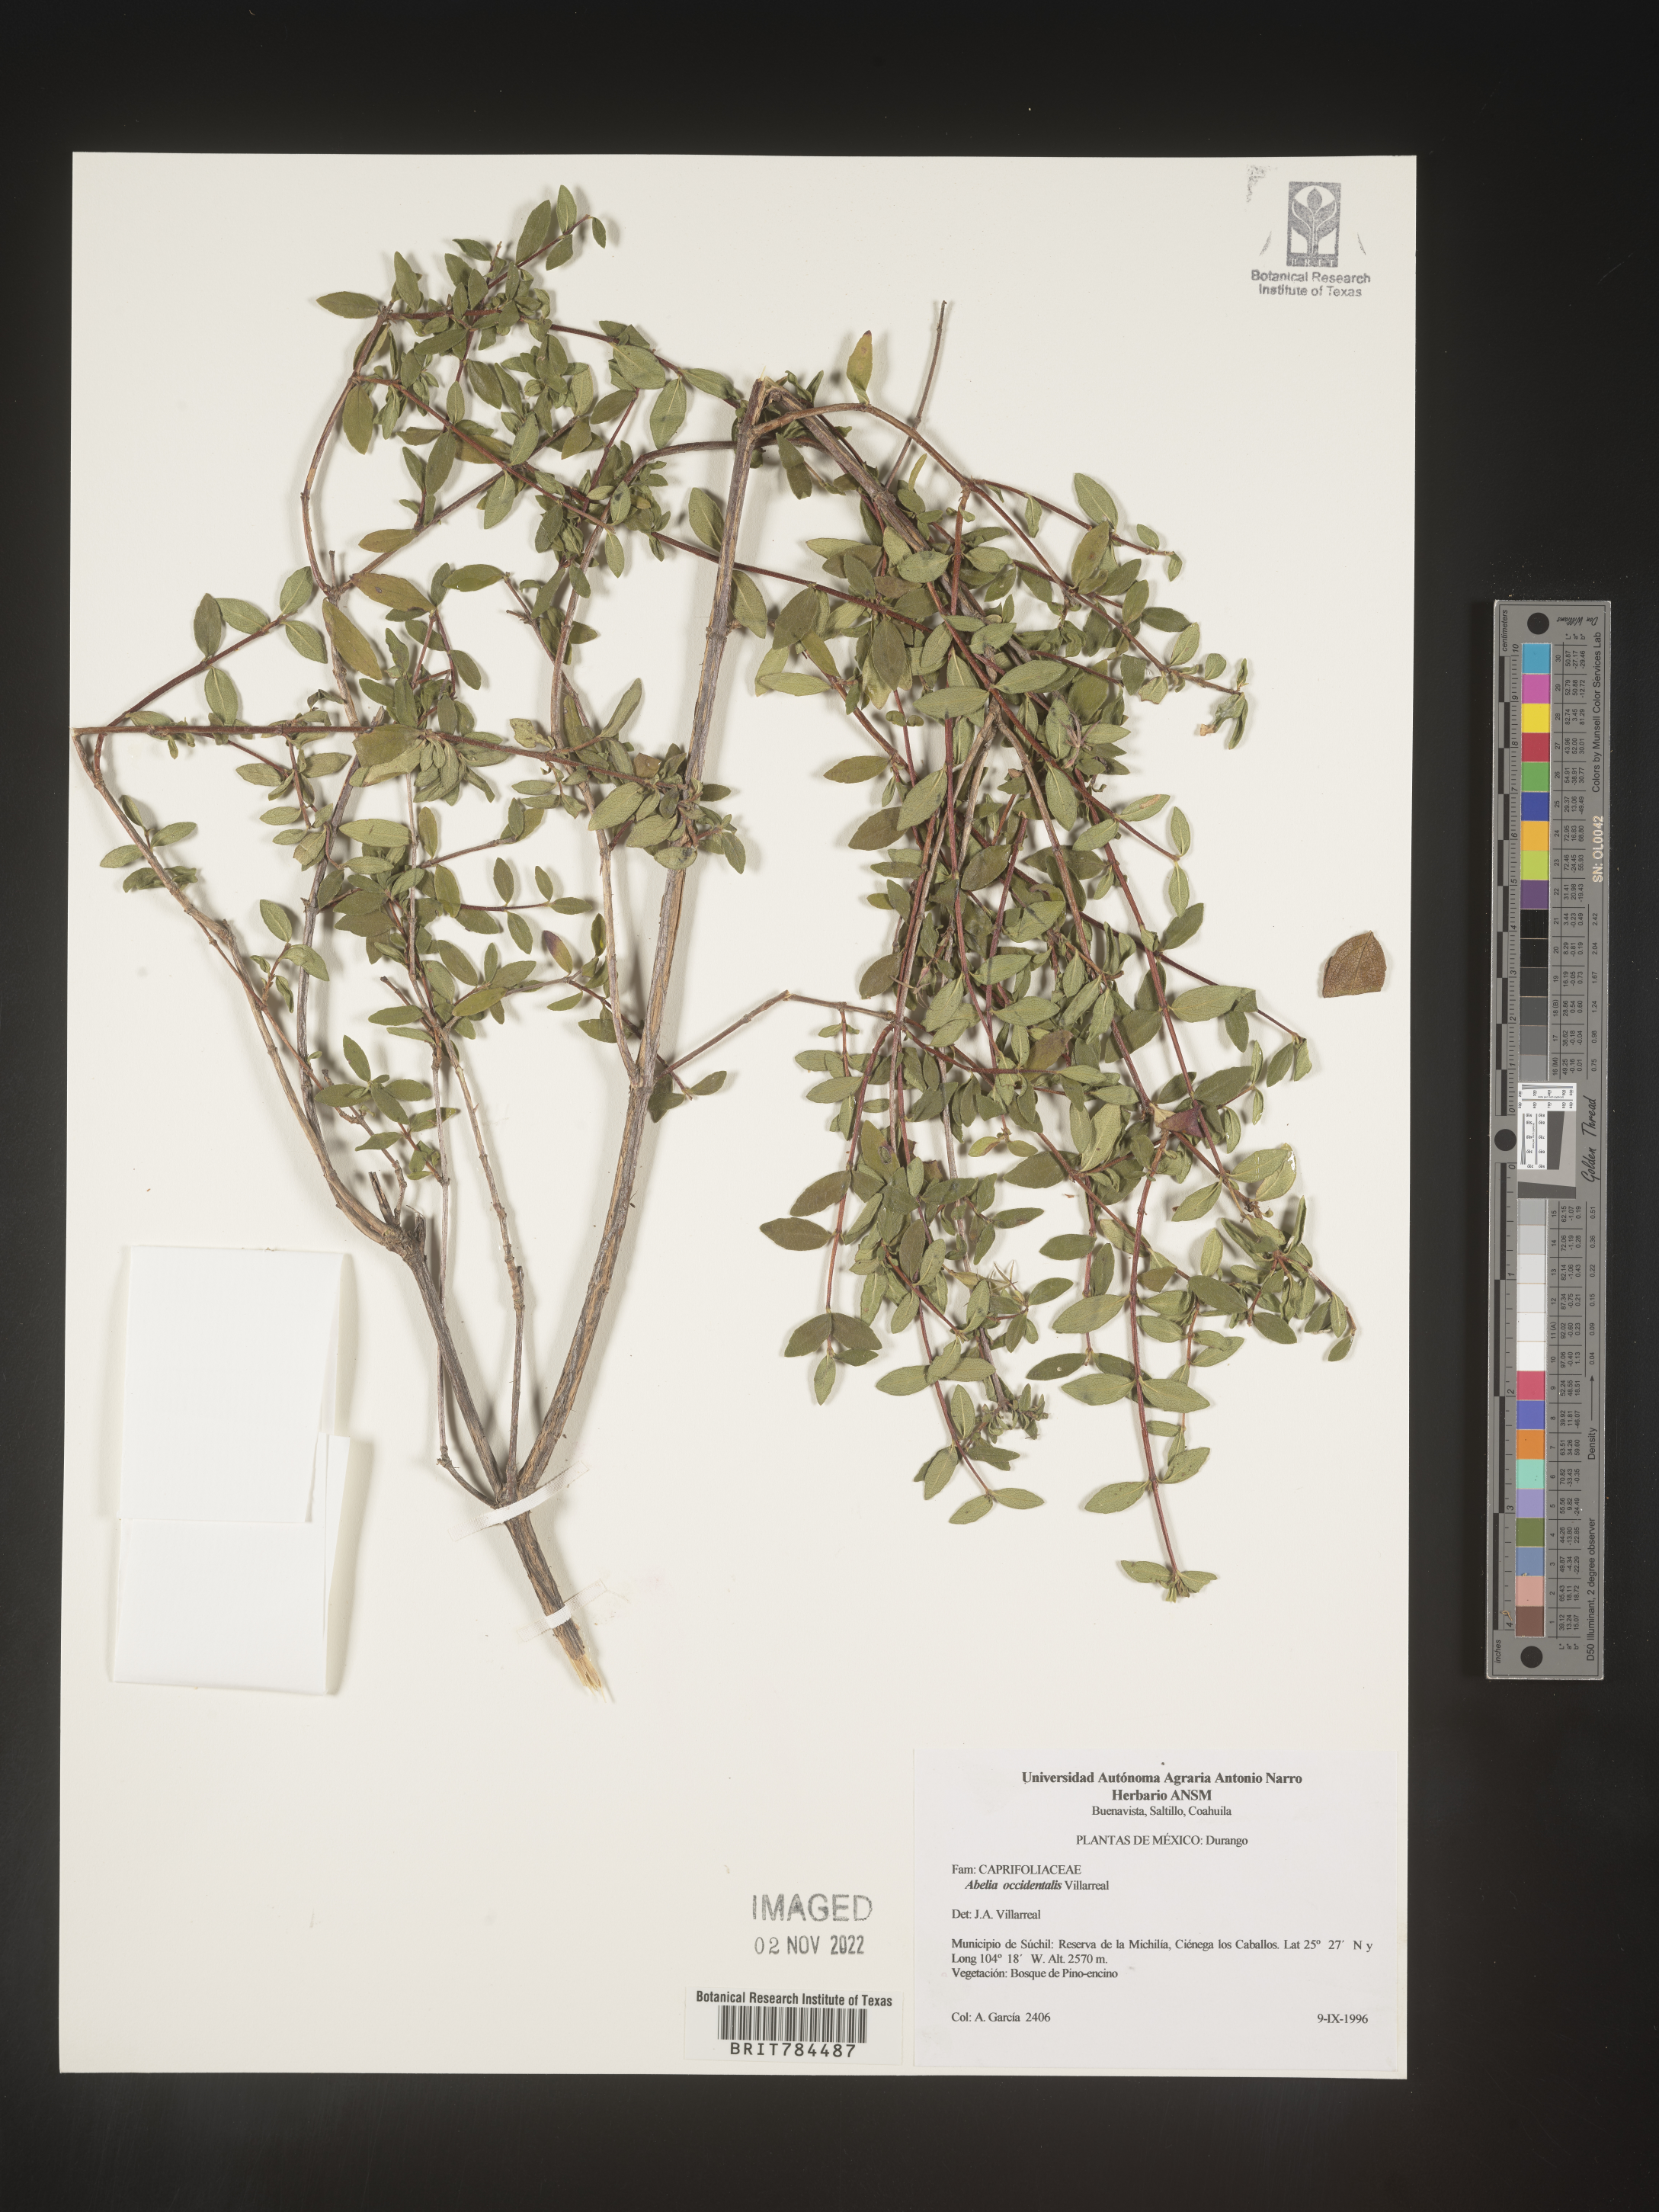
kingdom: Plantae
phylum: Tracheophyta
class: Magnoliopsida
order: Dipsacales
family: Caprifoliaceae
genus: Abelia
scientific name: Abelia
